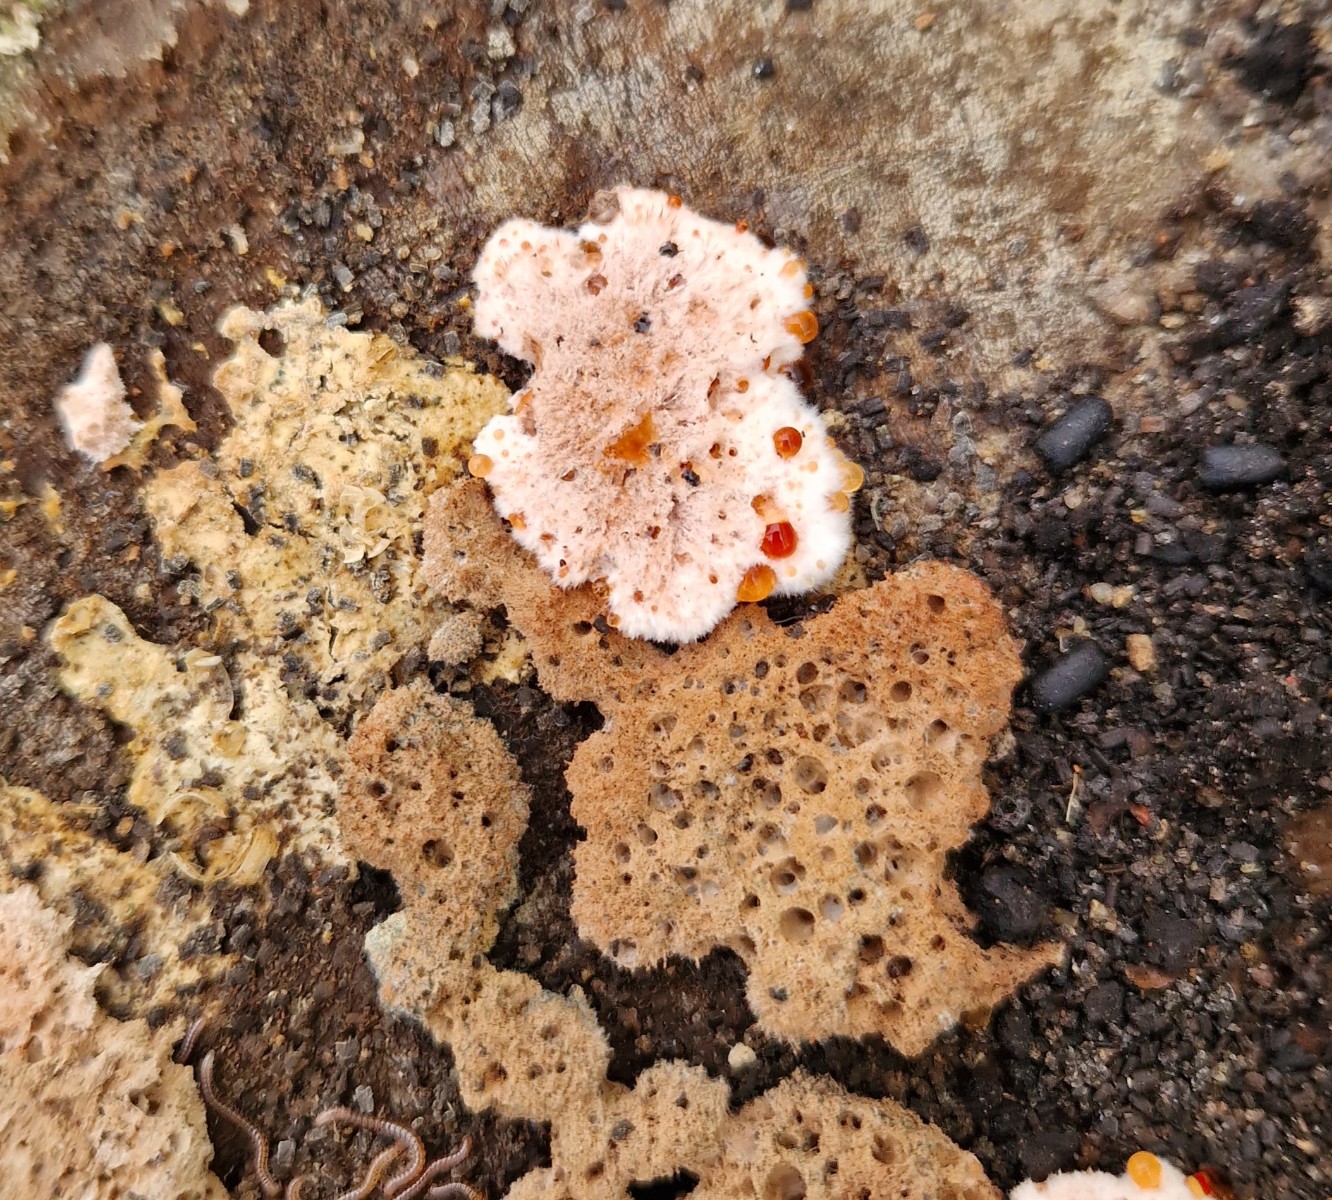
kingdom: Fungi
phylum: Basidiomycota
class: Agaricomycetes
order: Corticiales
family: Corticiaceae
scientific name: Corticiaceae
